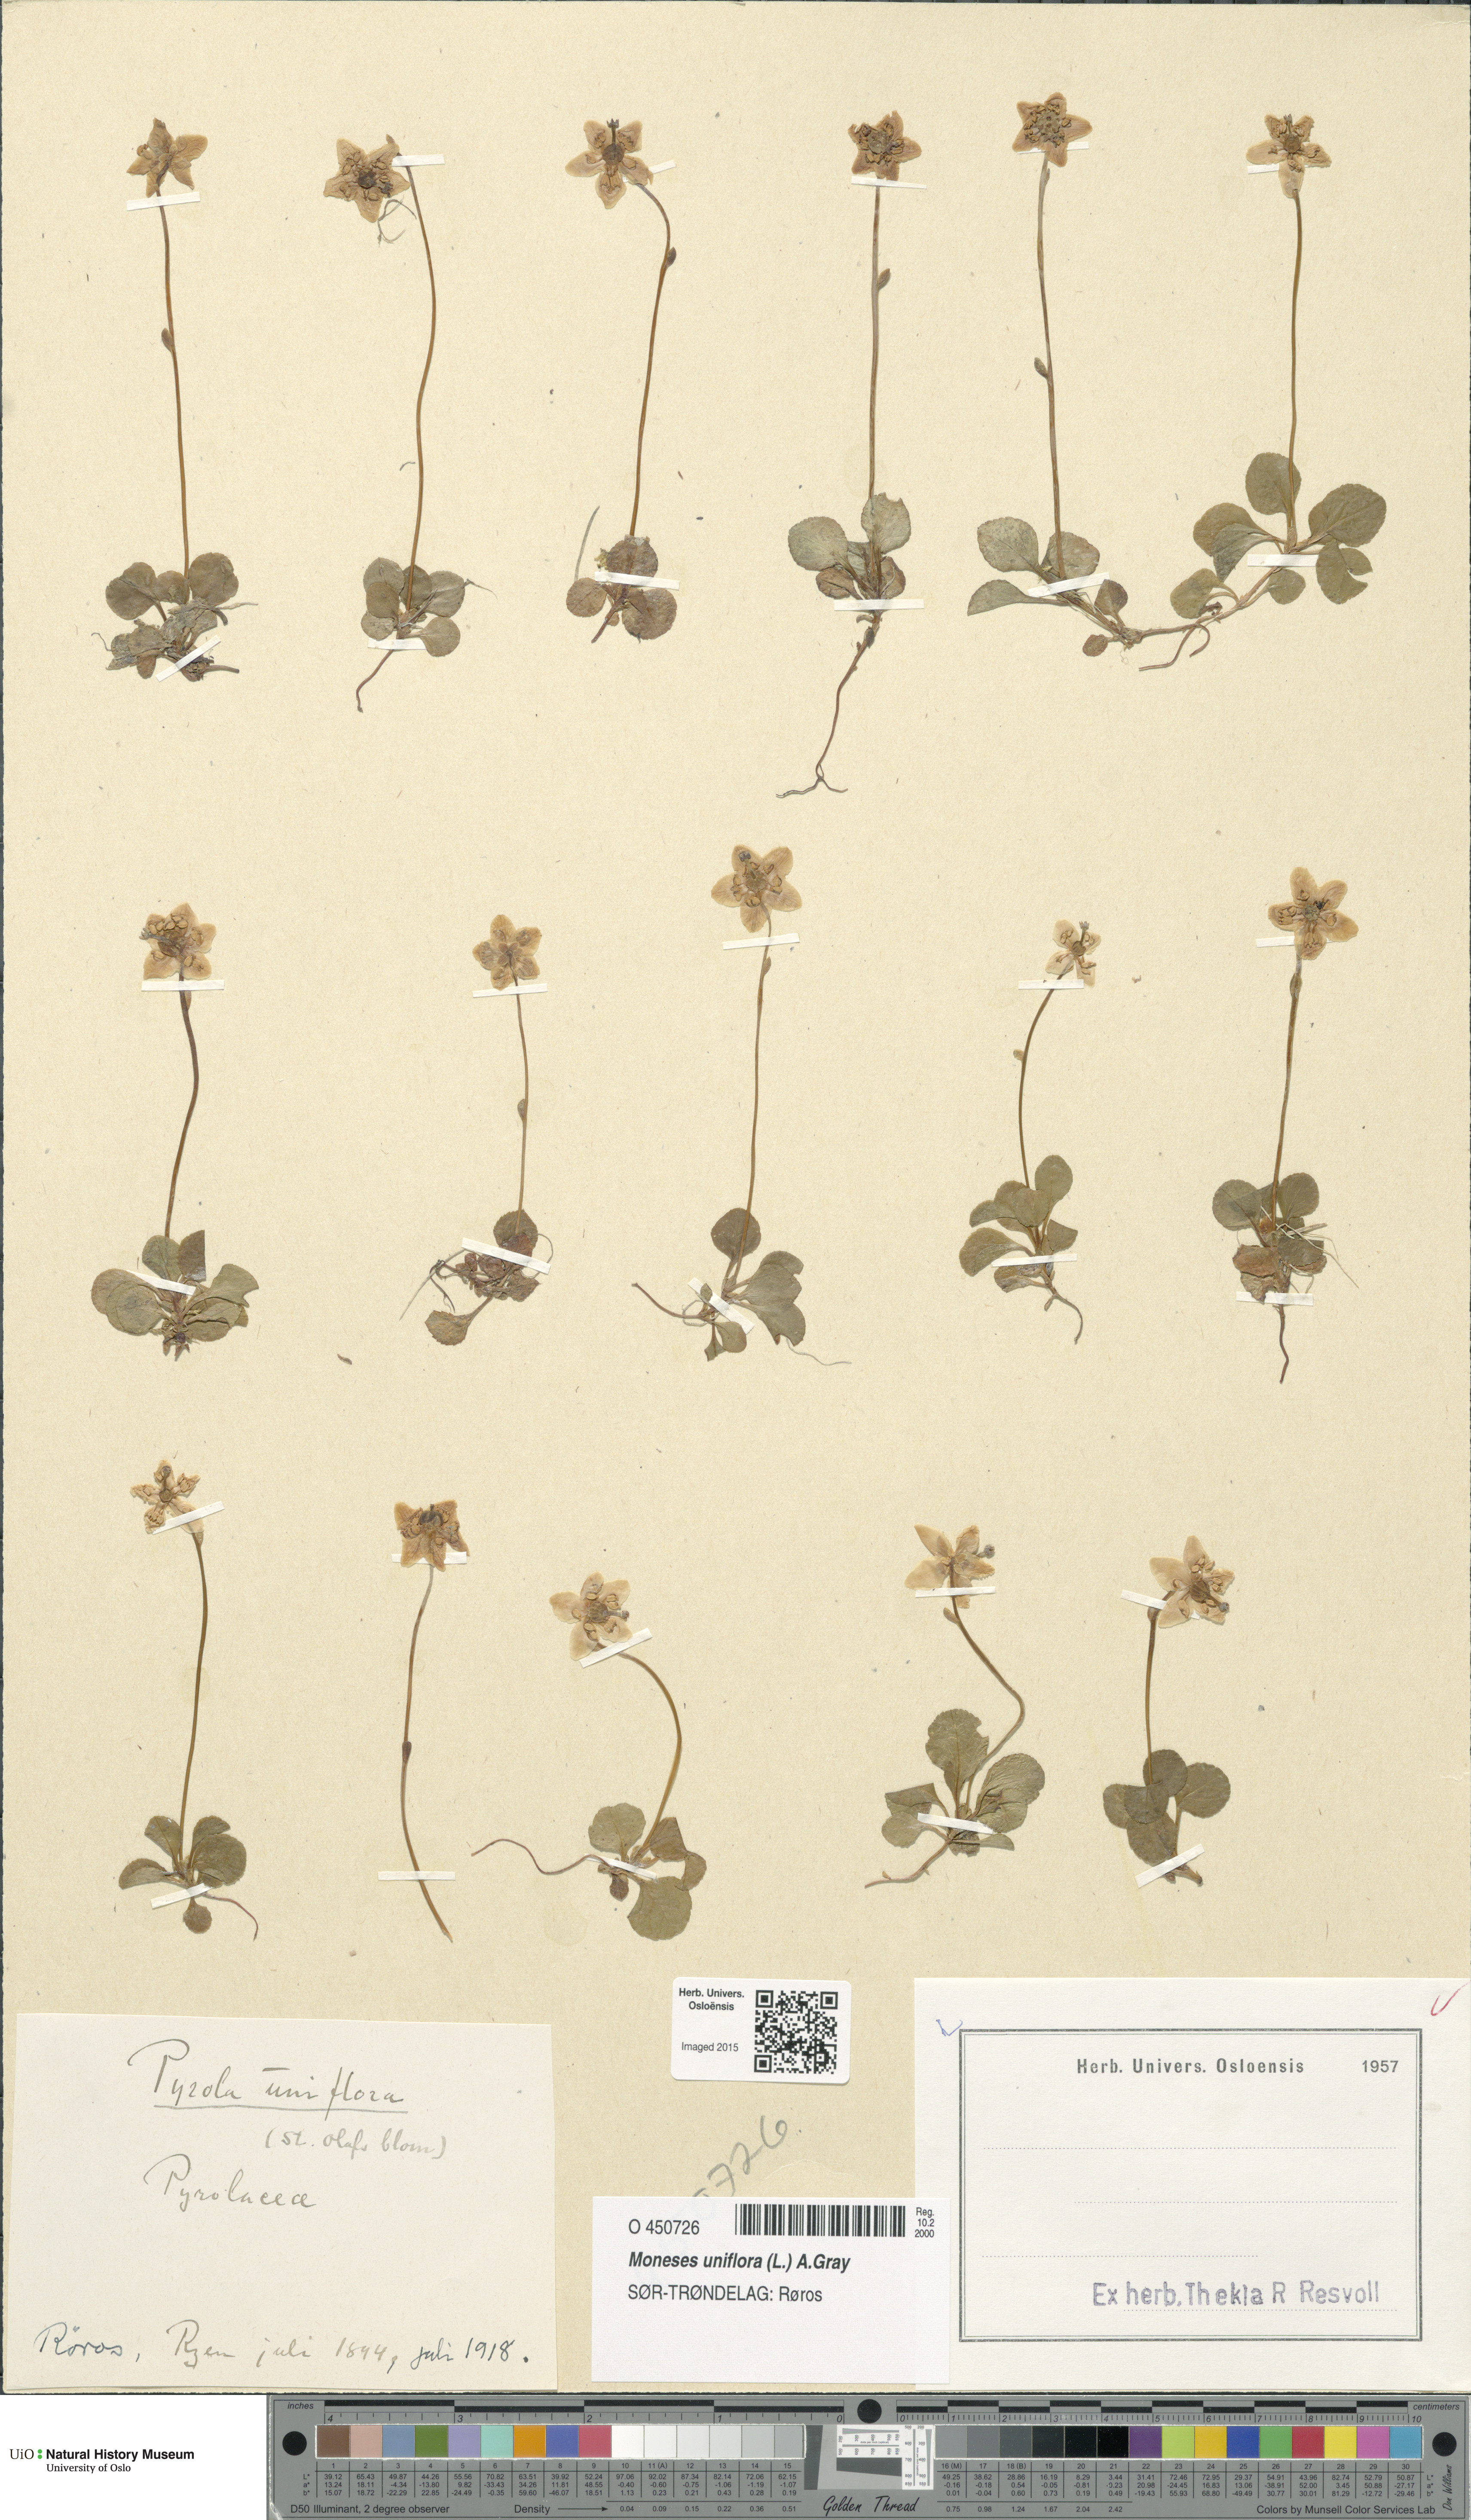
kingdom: Plantae
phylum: Tracheophyta
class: Magnoliopsida
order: Ericales
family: Ericaceae
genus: Moneses
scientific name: Moneses uniflora
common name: One-flowered wintergreen
